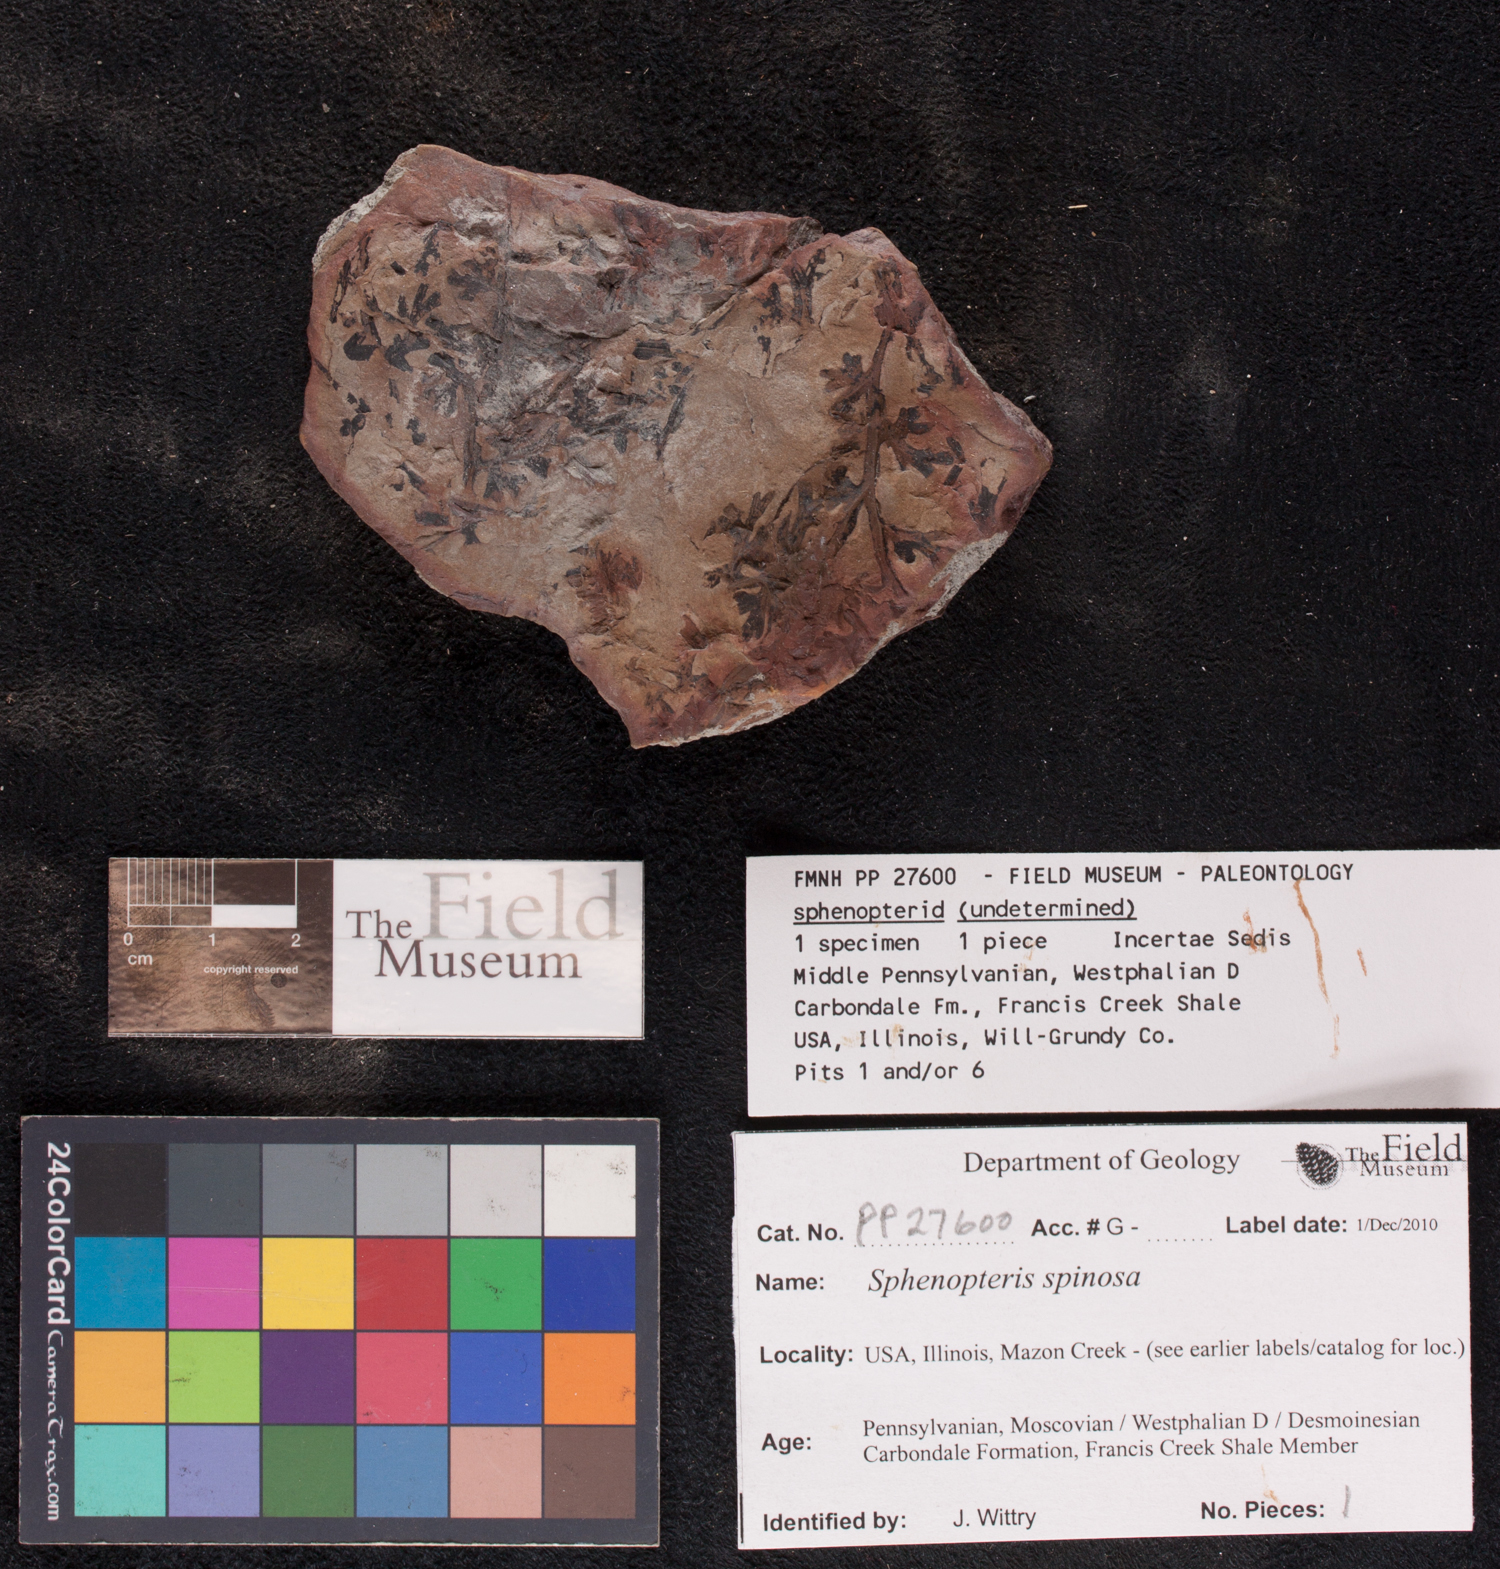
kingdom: Plantae
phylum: Tracheophyta
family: Lyginopteridaceae
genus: Sphenopteris
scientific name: Sphenopteris
